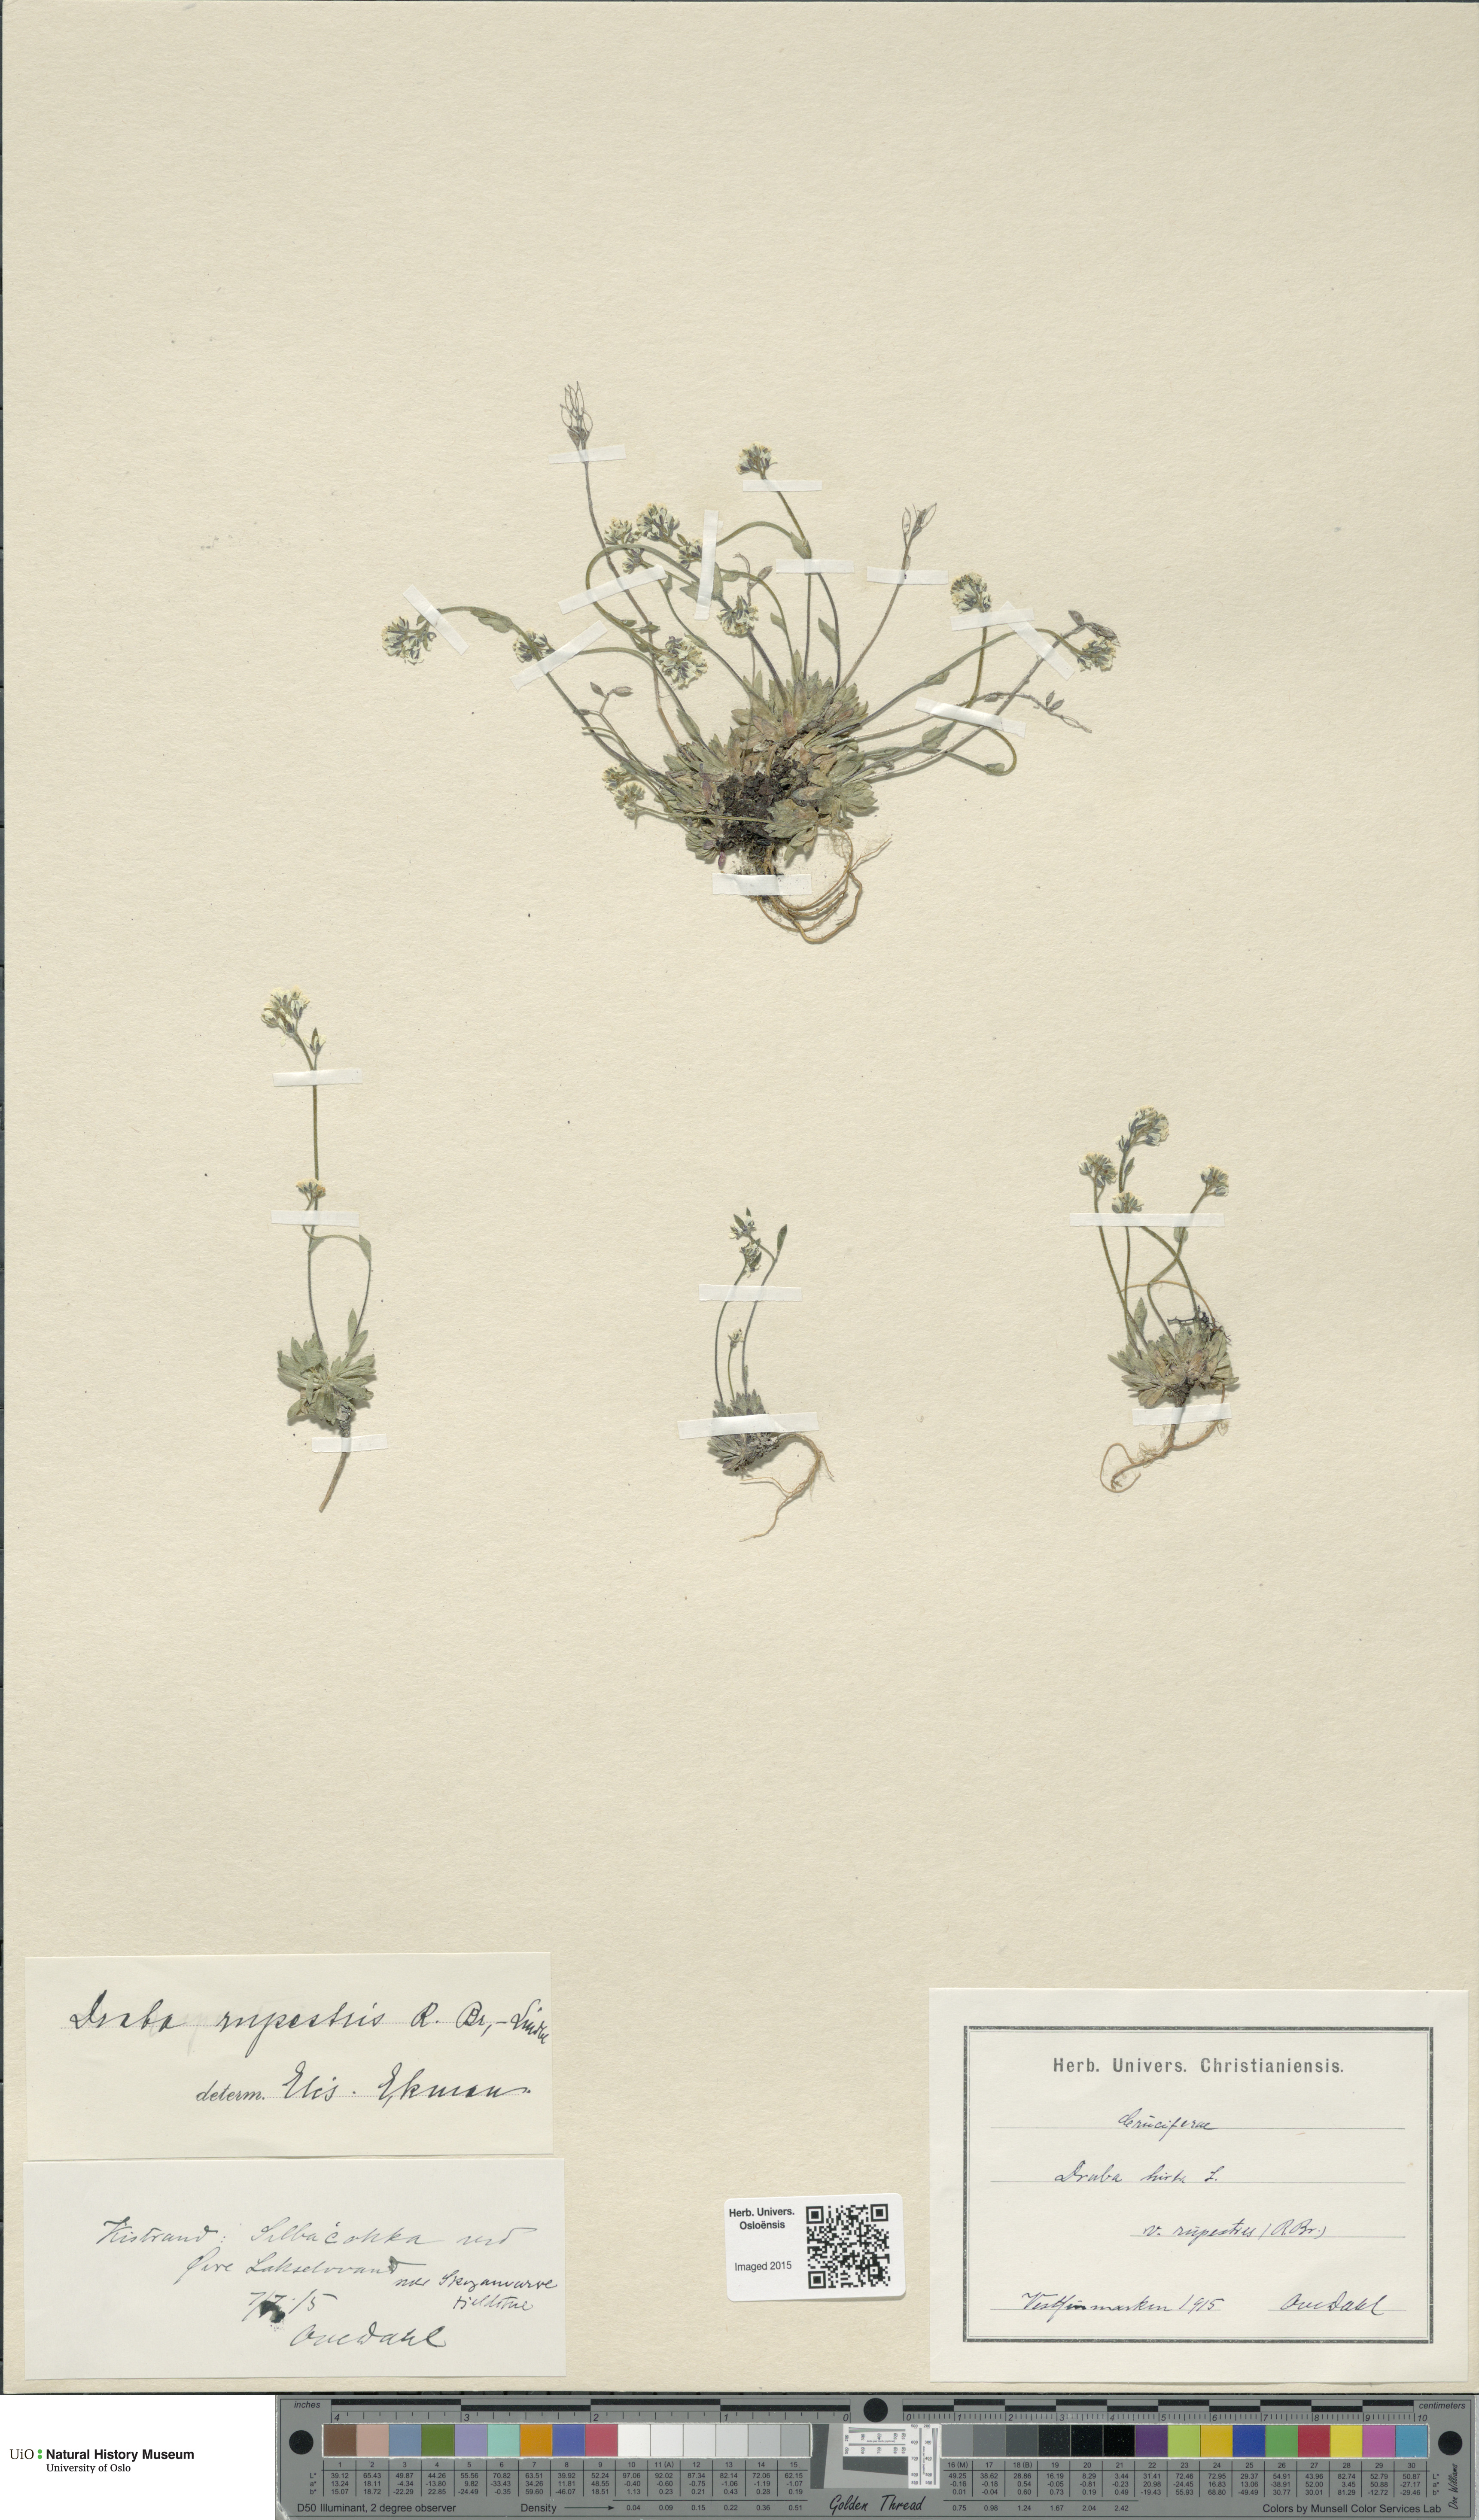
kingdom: Plantae
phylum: Tracheophyta
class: Magnoliopsida
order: Brassicales
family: Brassicaceae
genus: Draba
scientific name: Draba norvegica
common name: Rock whitlowgrass
